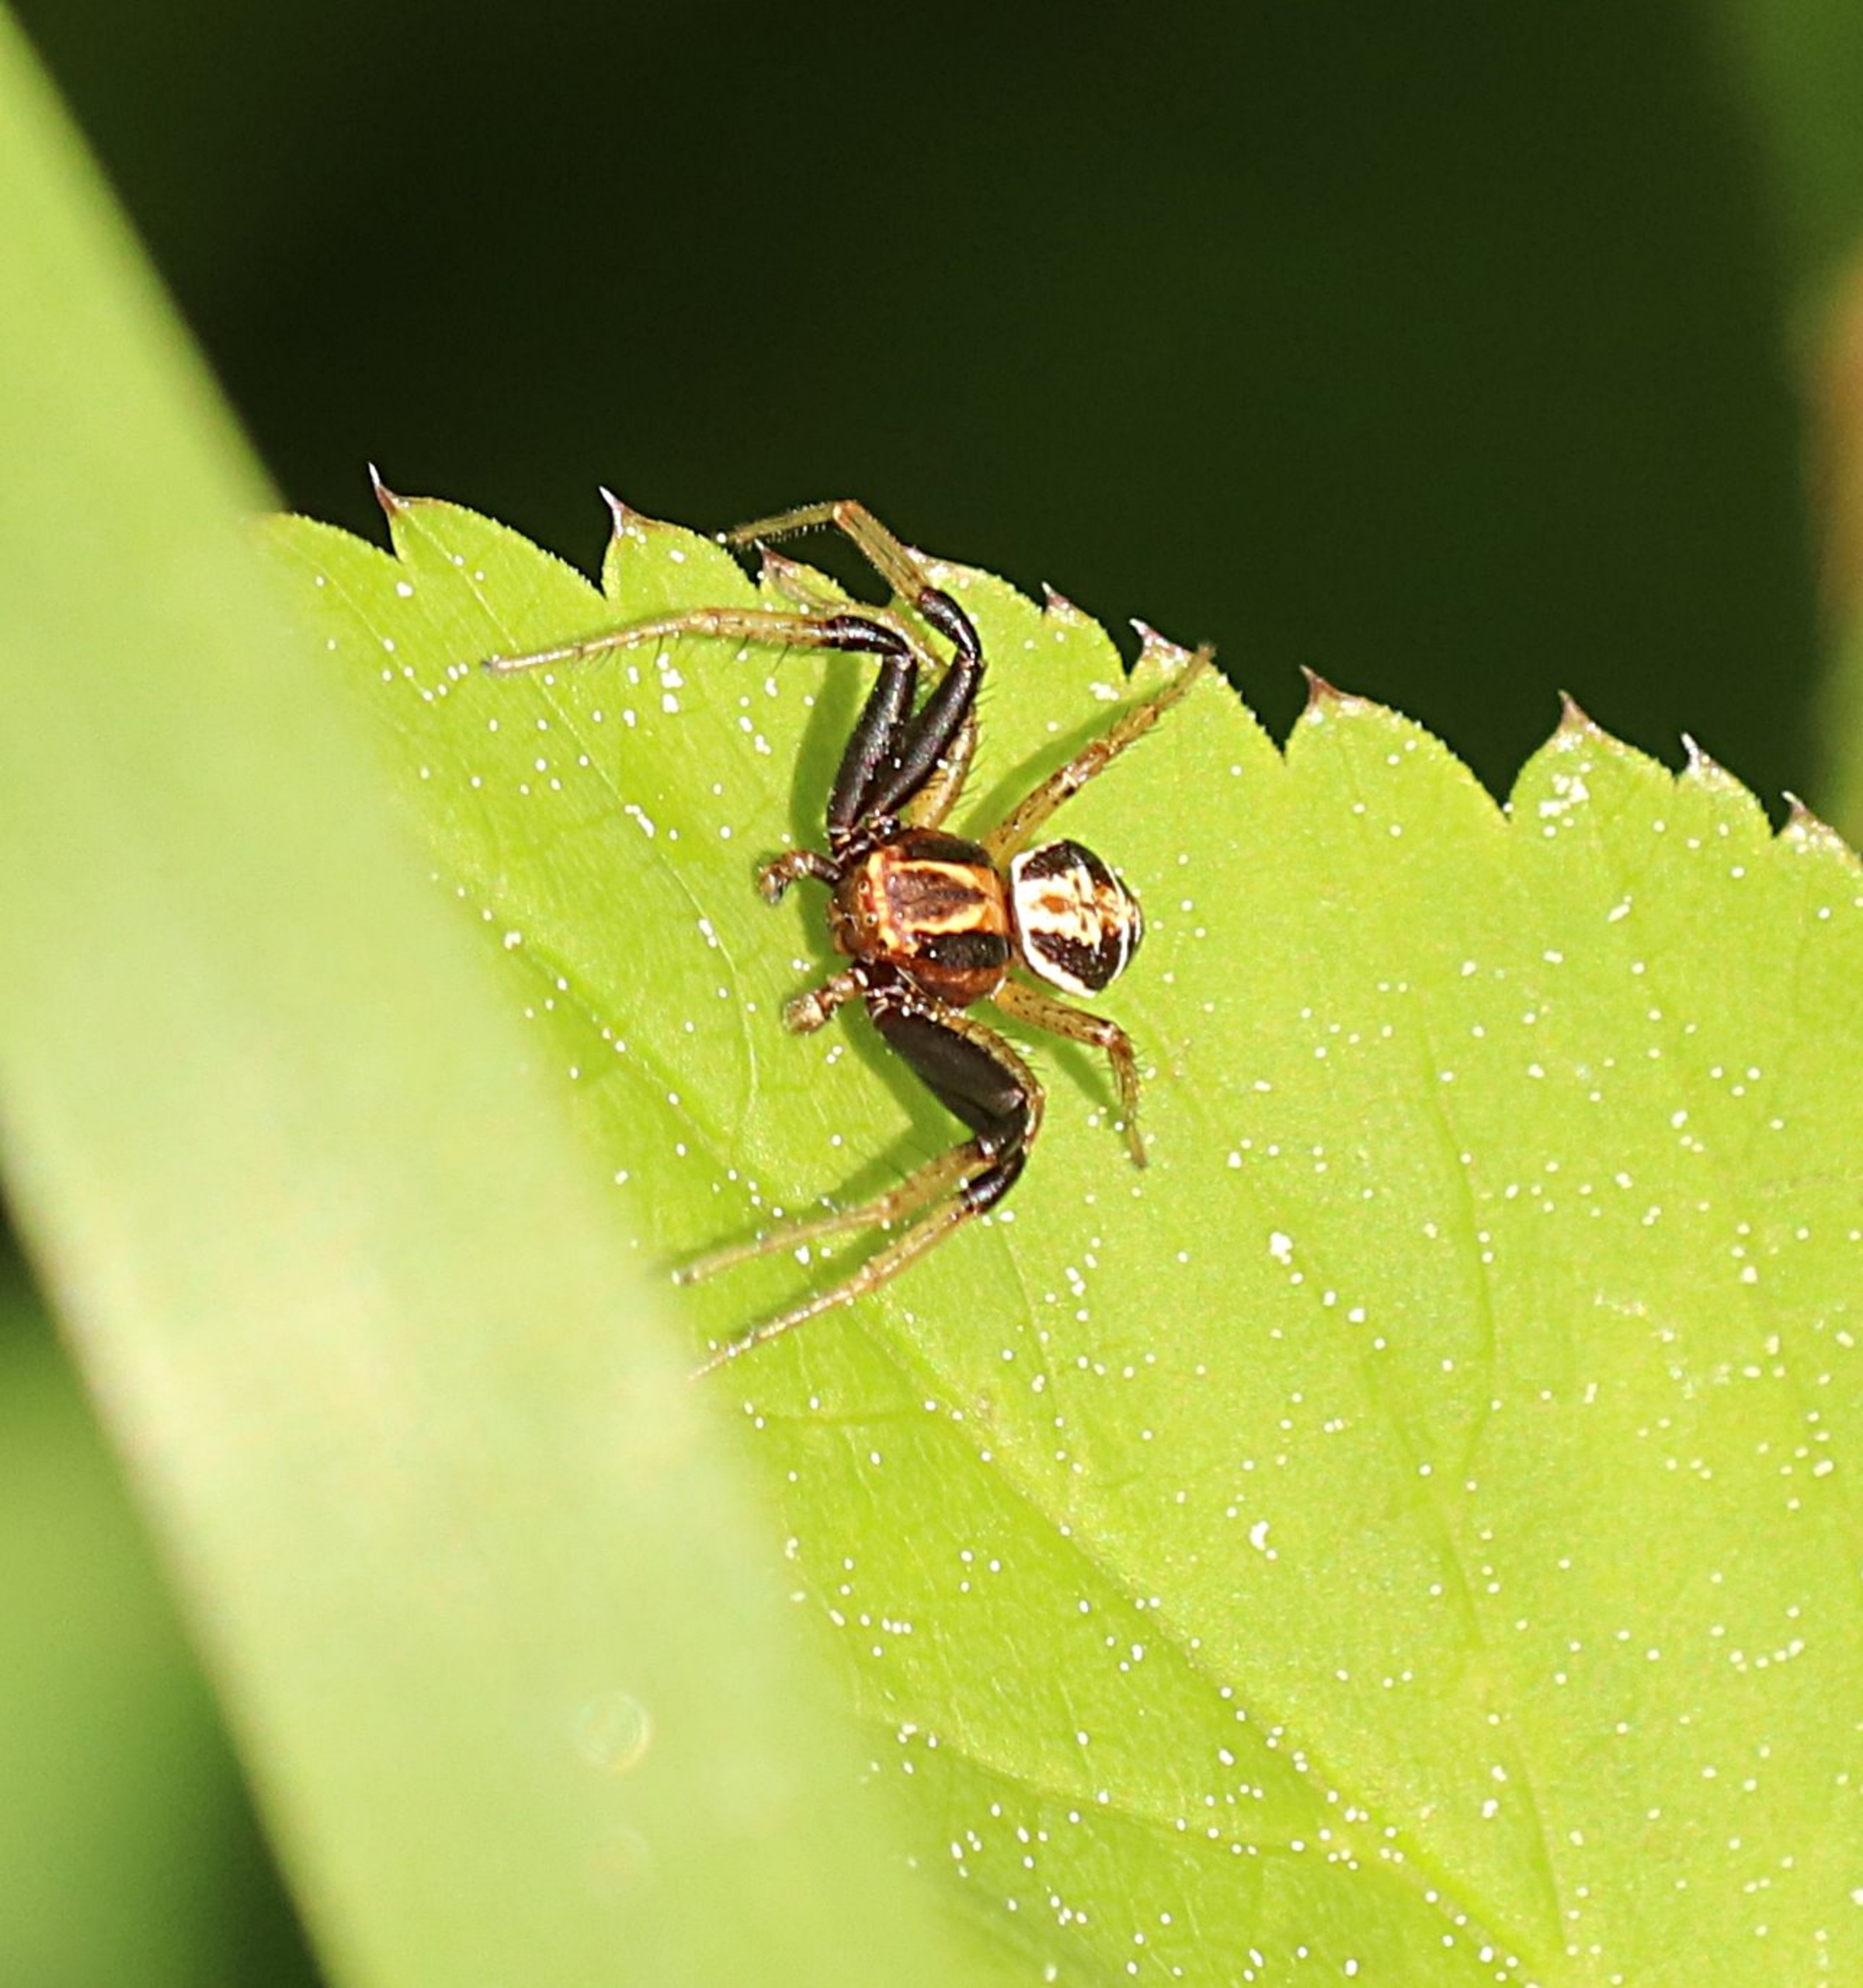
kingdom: Animalia
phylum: Arthropoda
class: Arachnida
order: Araneae
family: Thomisidae
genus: Xysticus
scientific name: Xysticus ulmi
